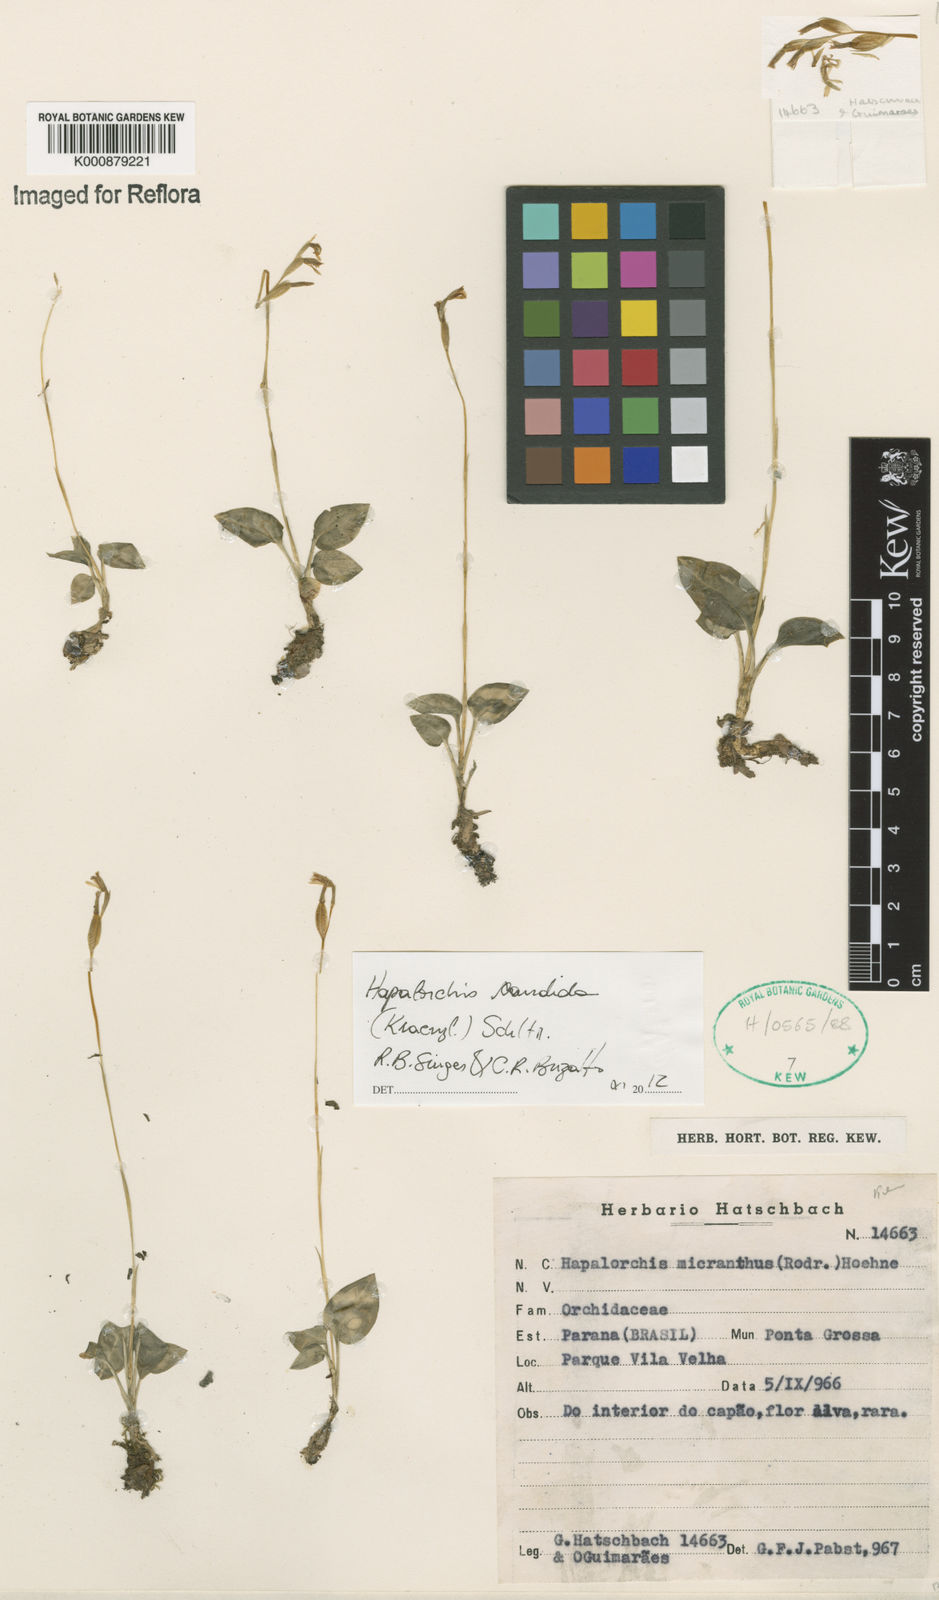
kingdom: Plantae
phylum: Tracheophyta
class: Liliopsida
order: Asparagales
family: Orchidaceae
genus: Hapalorchis
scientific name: Hapalorchis lineata
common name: Tropical ladies'-tresses
